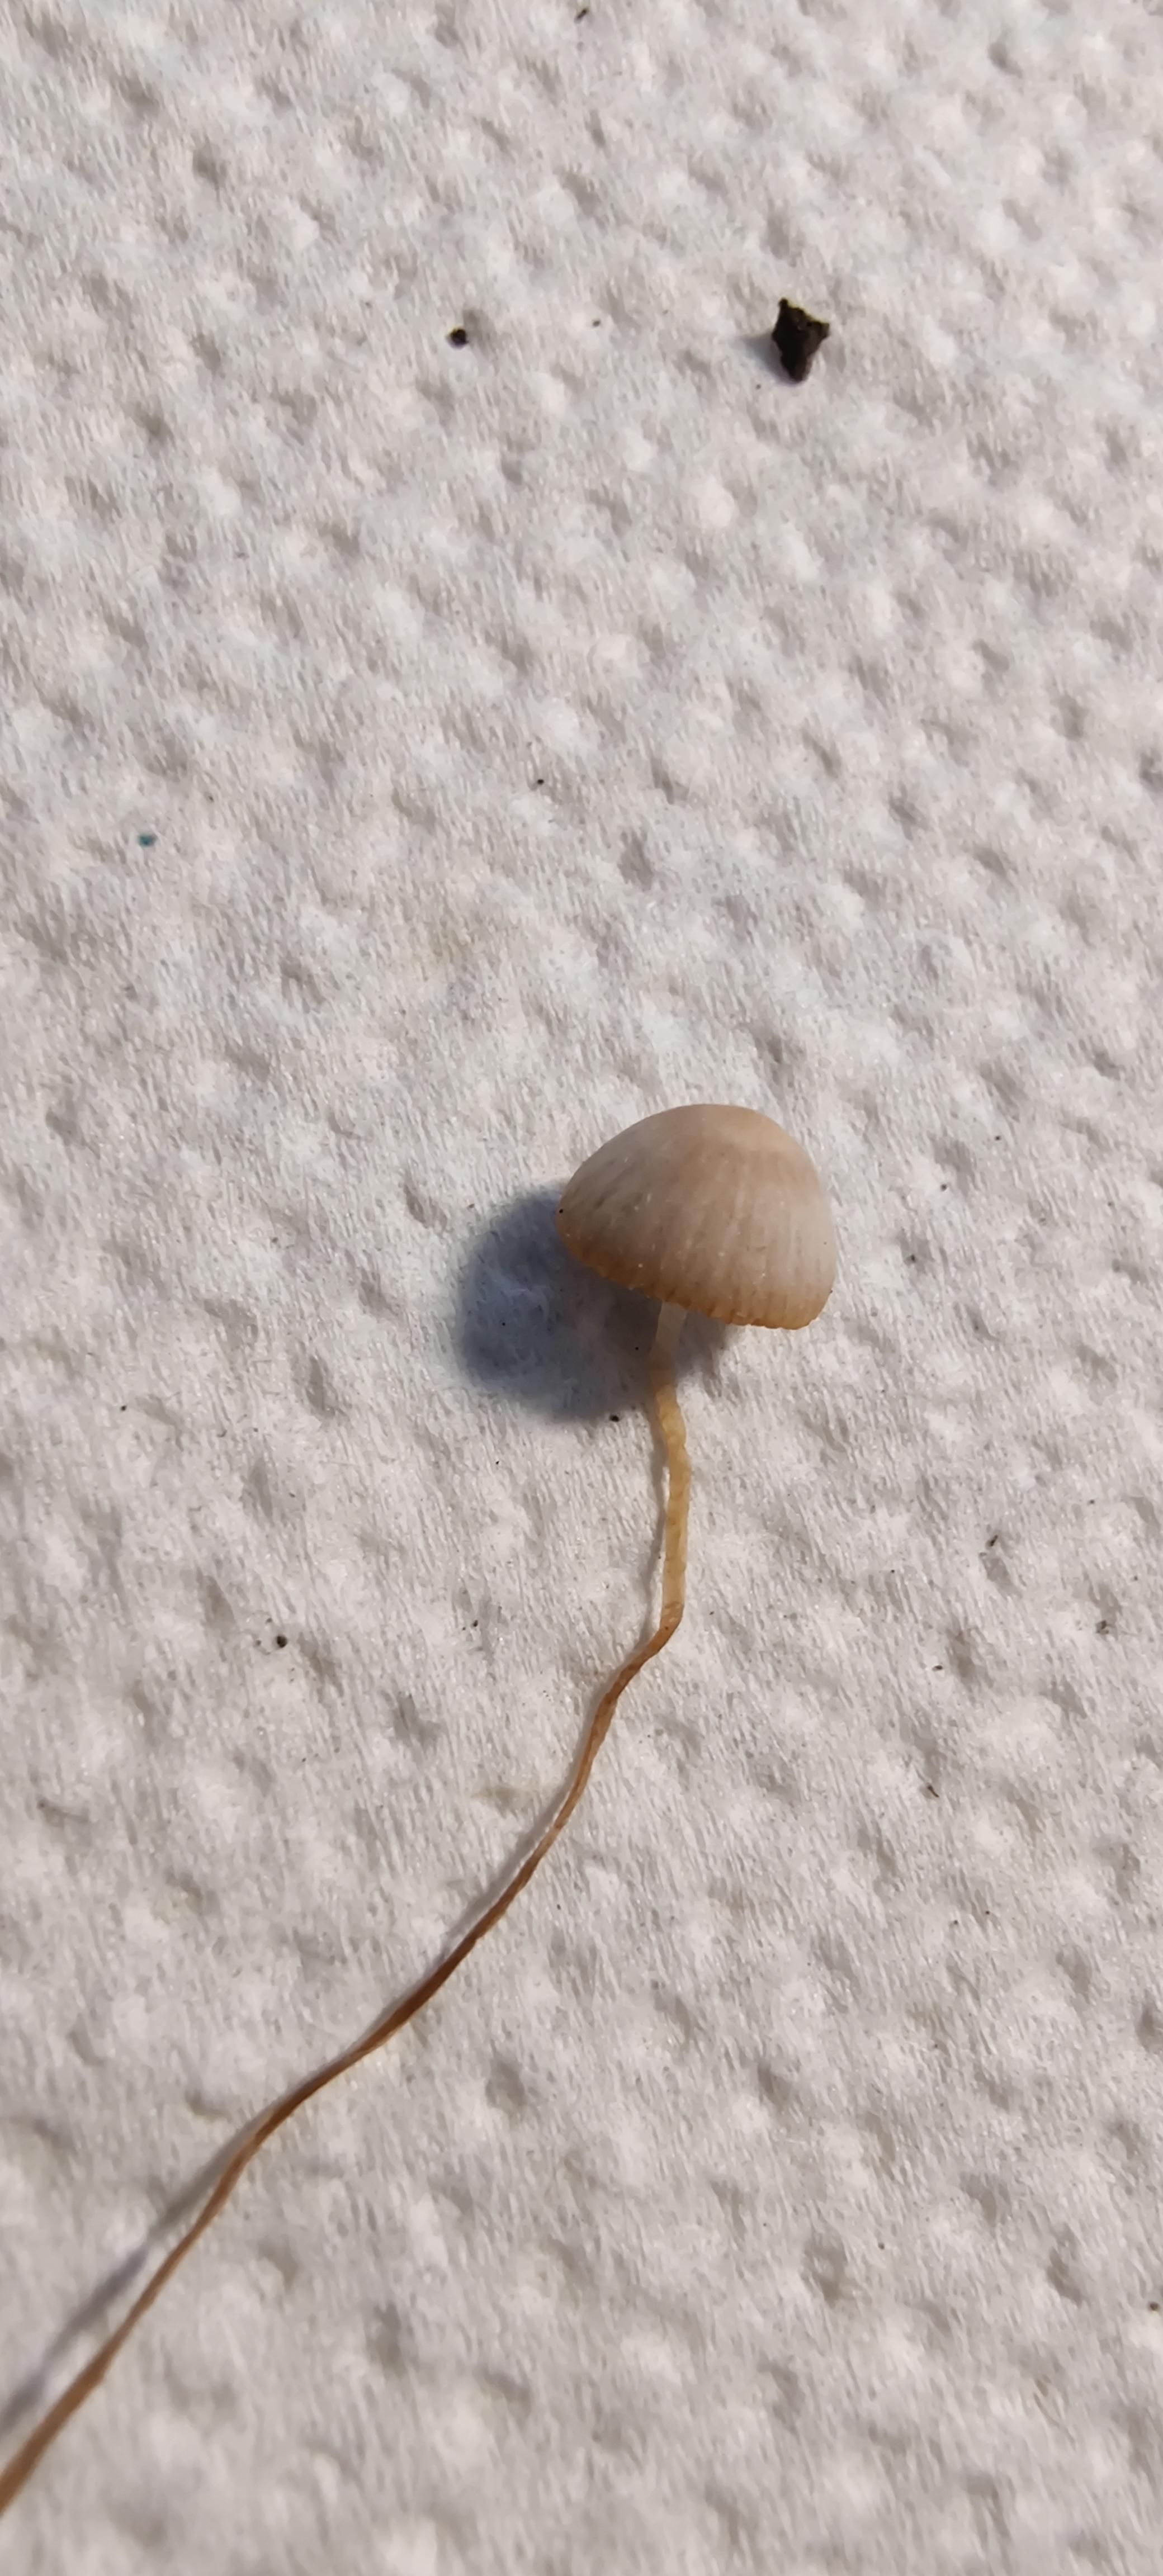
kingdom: Fungi
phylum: Basidiomycota
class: Agaricomycetes
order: Agaricales
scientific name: Agaricales
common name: champignonordenen
